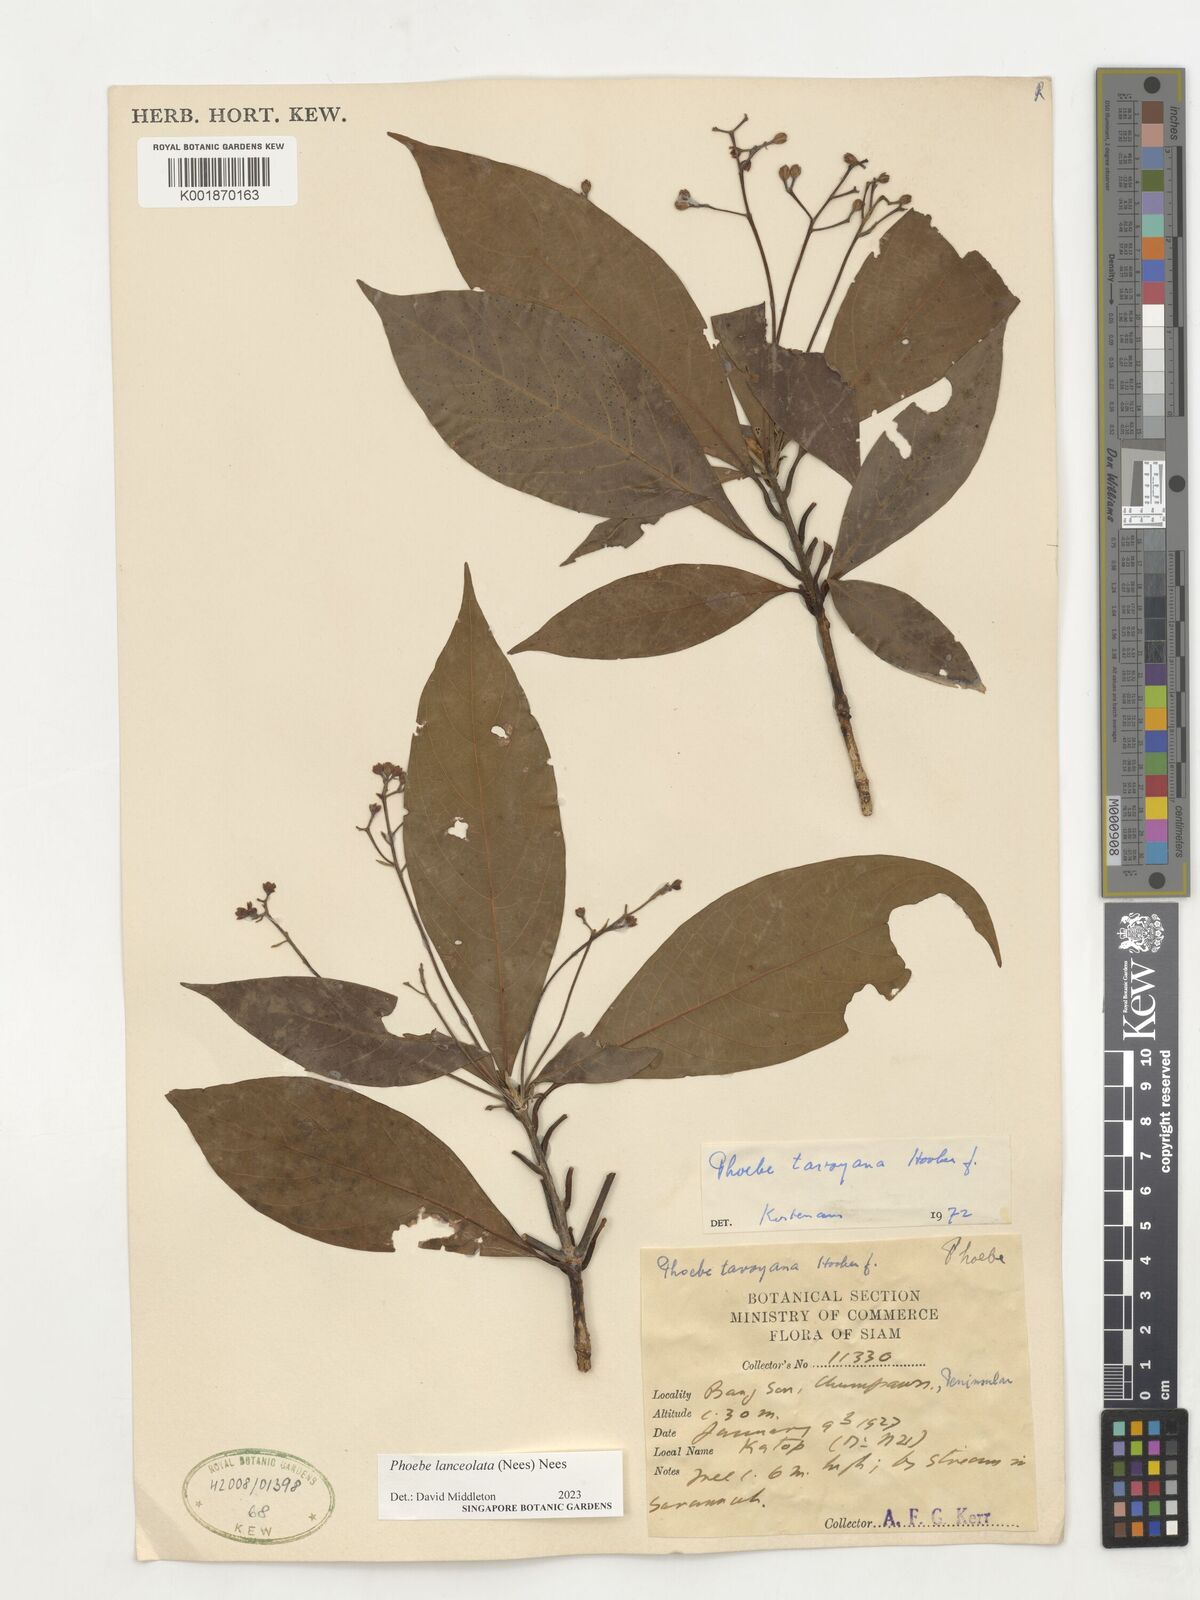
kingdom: Plantae
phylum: Tracheophyta
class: Magnoliopsida
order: Laurales
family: Lauraceae
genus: Phoebe
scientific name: Phoebe lanceolata
